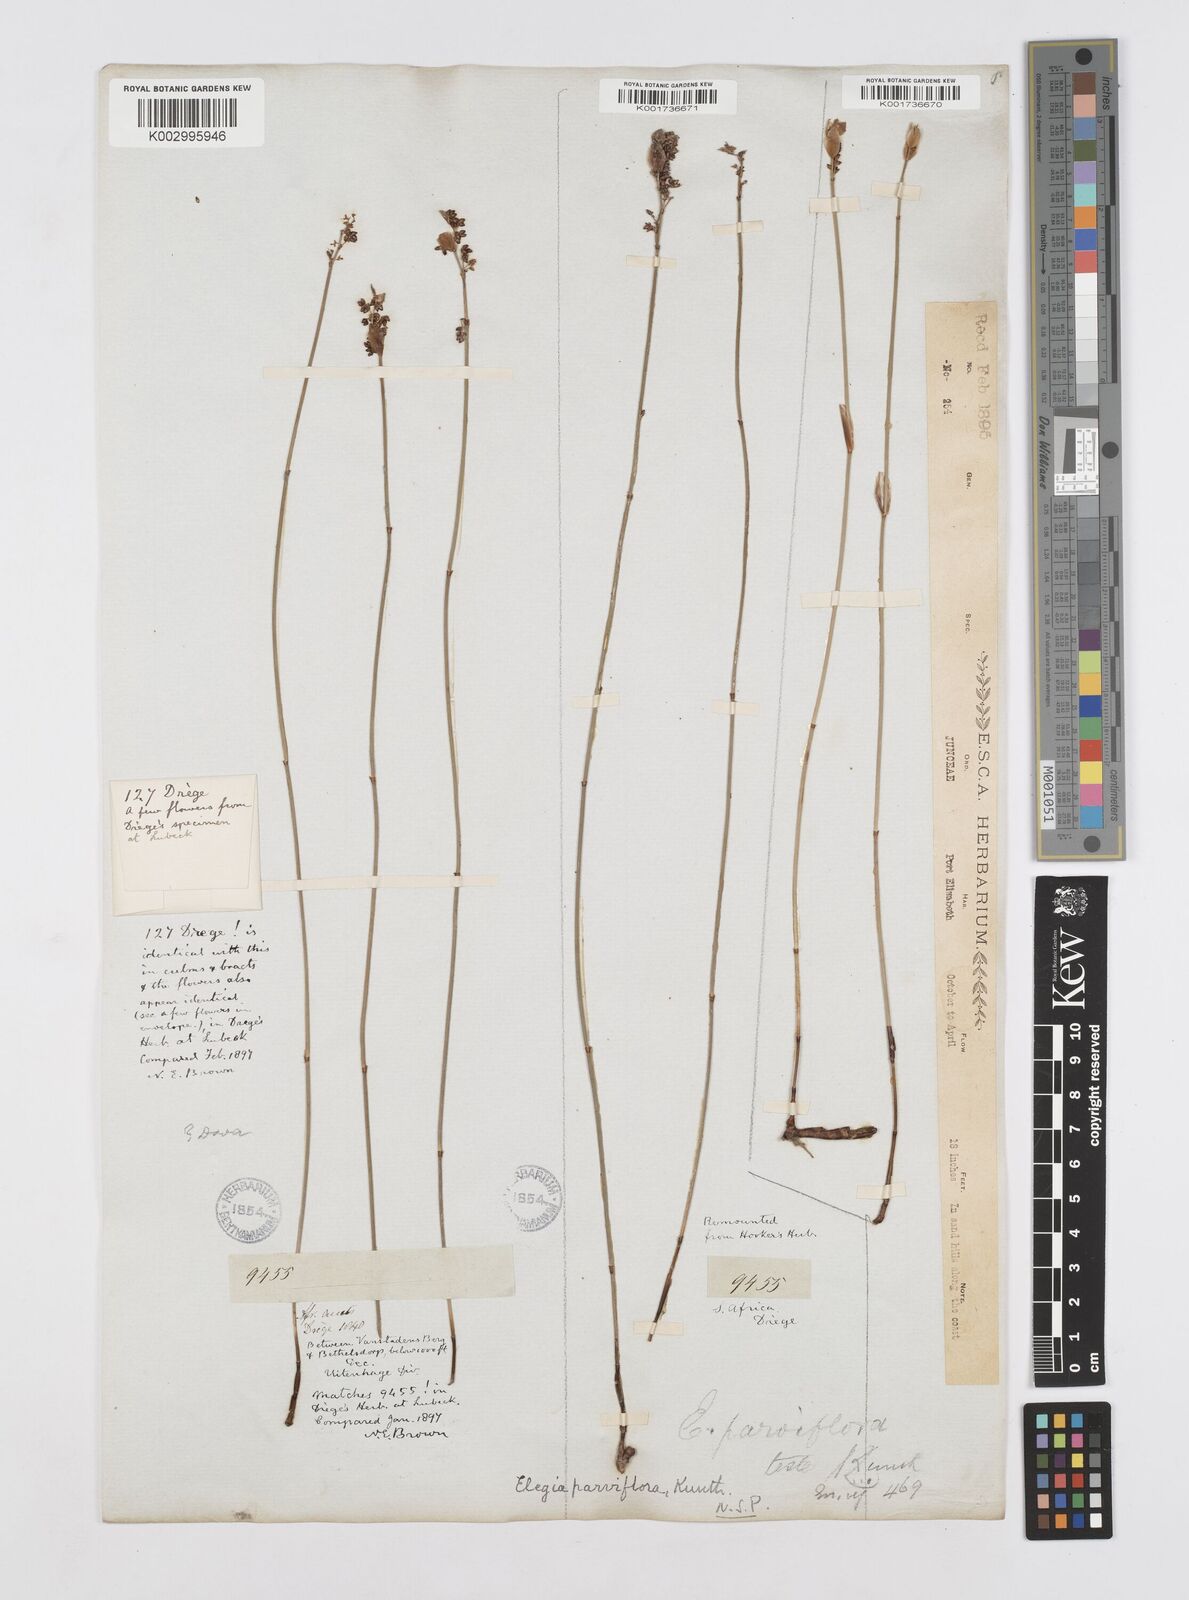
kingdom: Plantae
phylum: Tracheophyta
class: Liliopsida
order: Poales
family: Restionaceae
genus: Cannomois
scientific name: Cannomois parviflora
